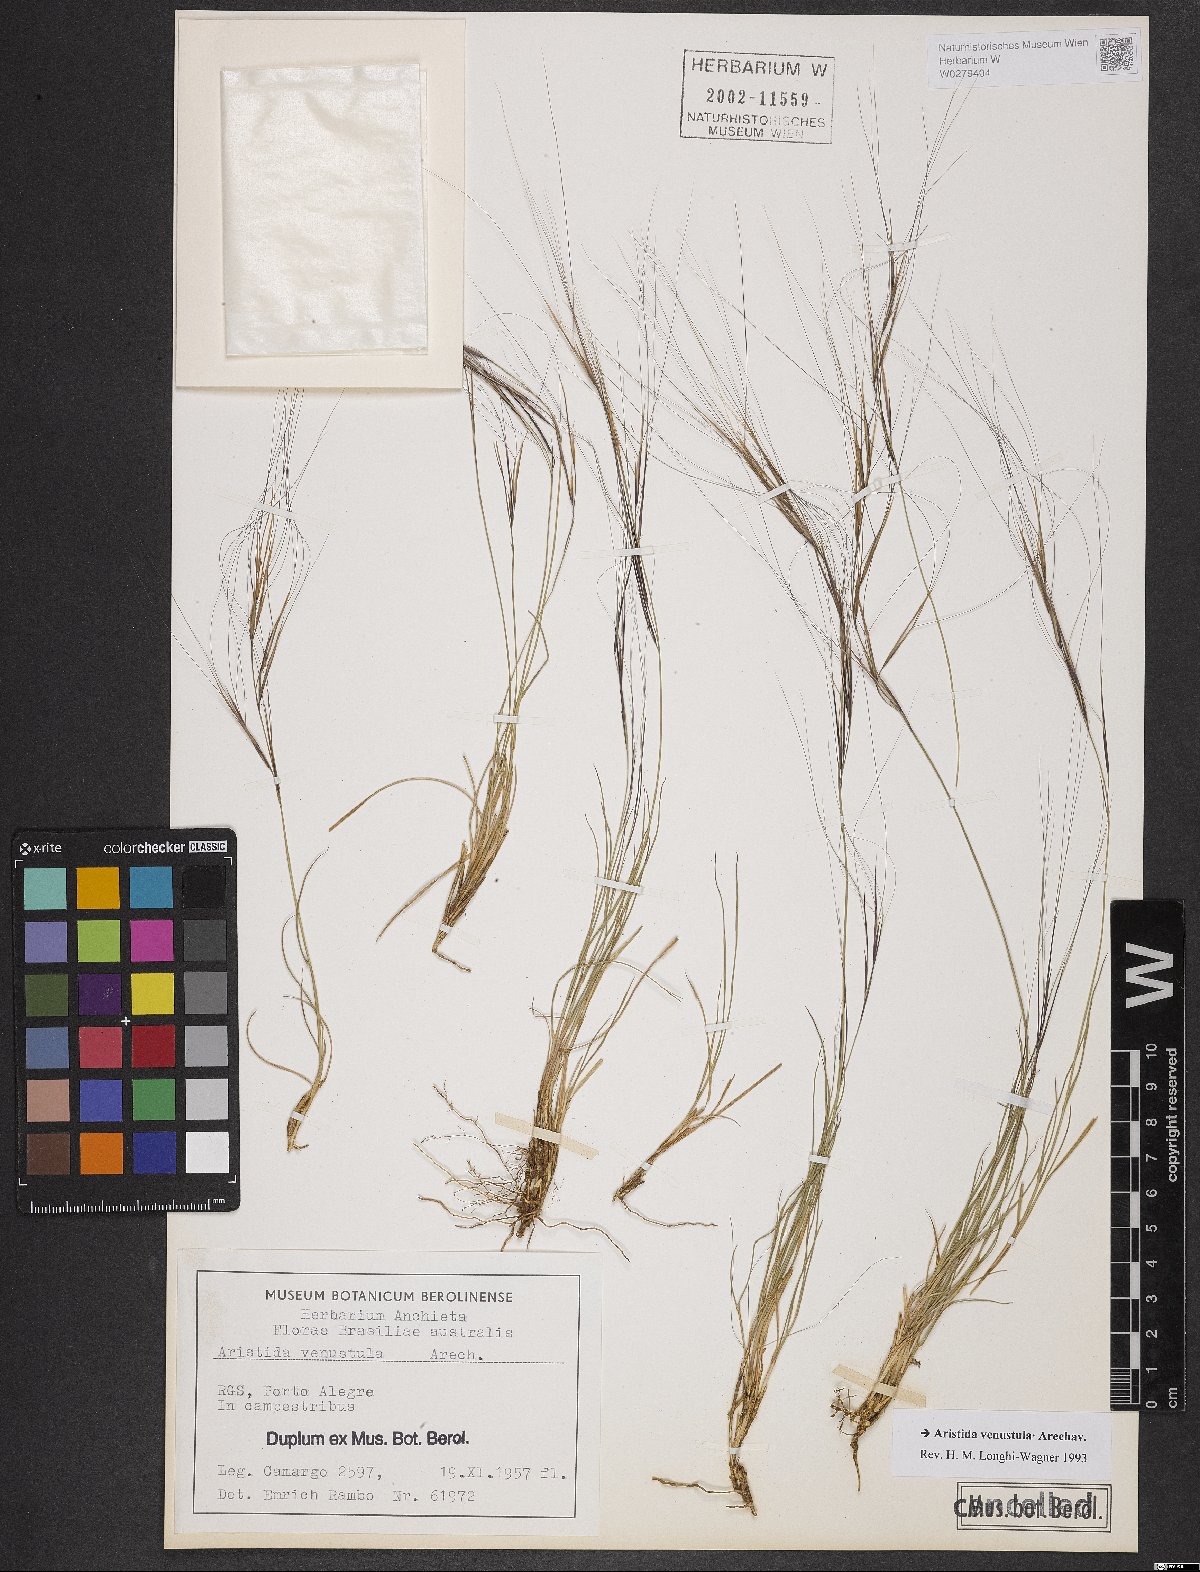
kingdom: Plantae
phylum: Tracheophyta
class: Liliopsida
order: Poales
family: Poaceae
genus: Aristida
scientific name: Aristida venustula
